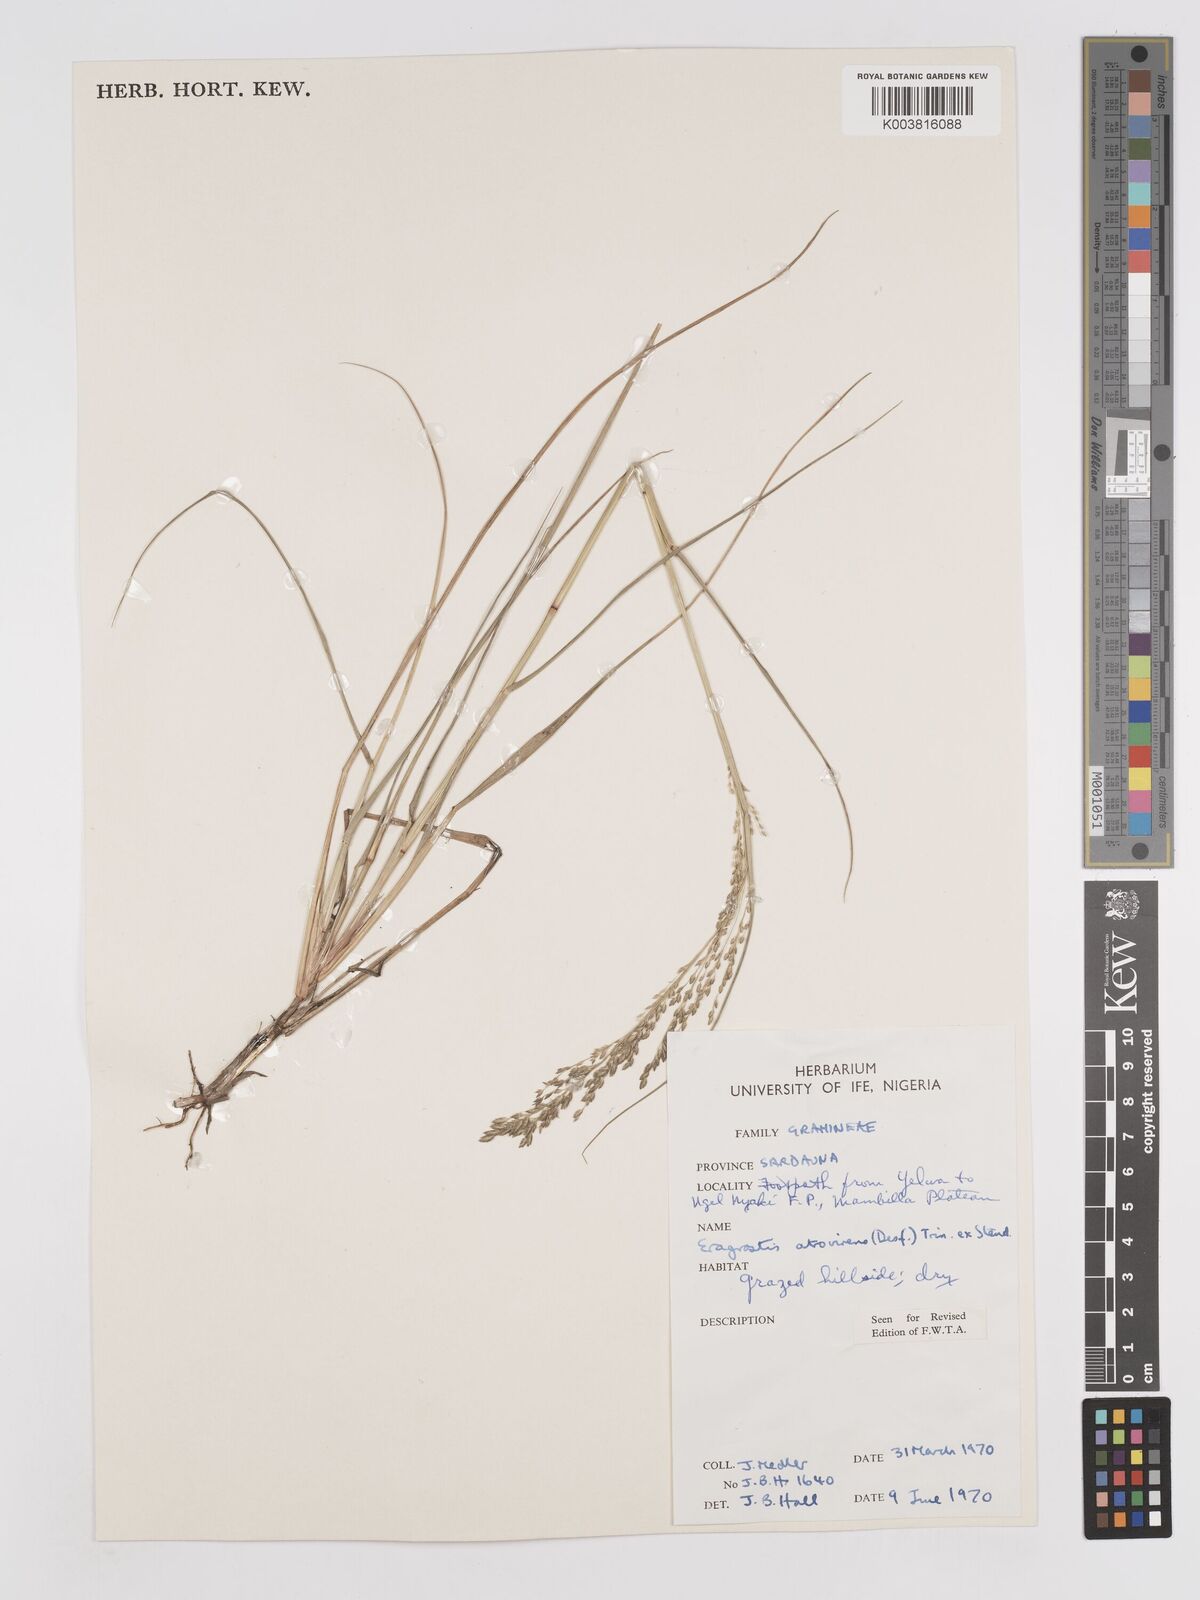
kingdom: Plantae
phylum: Tracheophyta
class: Liliopsida
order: Poales
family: Poaceae
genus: Eragrostis
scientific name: Eragrostis atrovirens
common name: Thalia lovegrass
